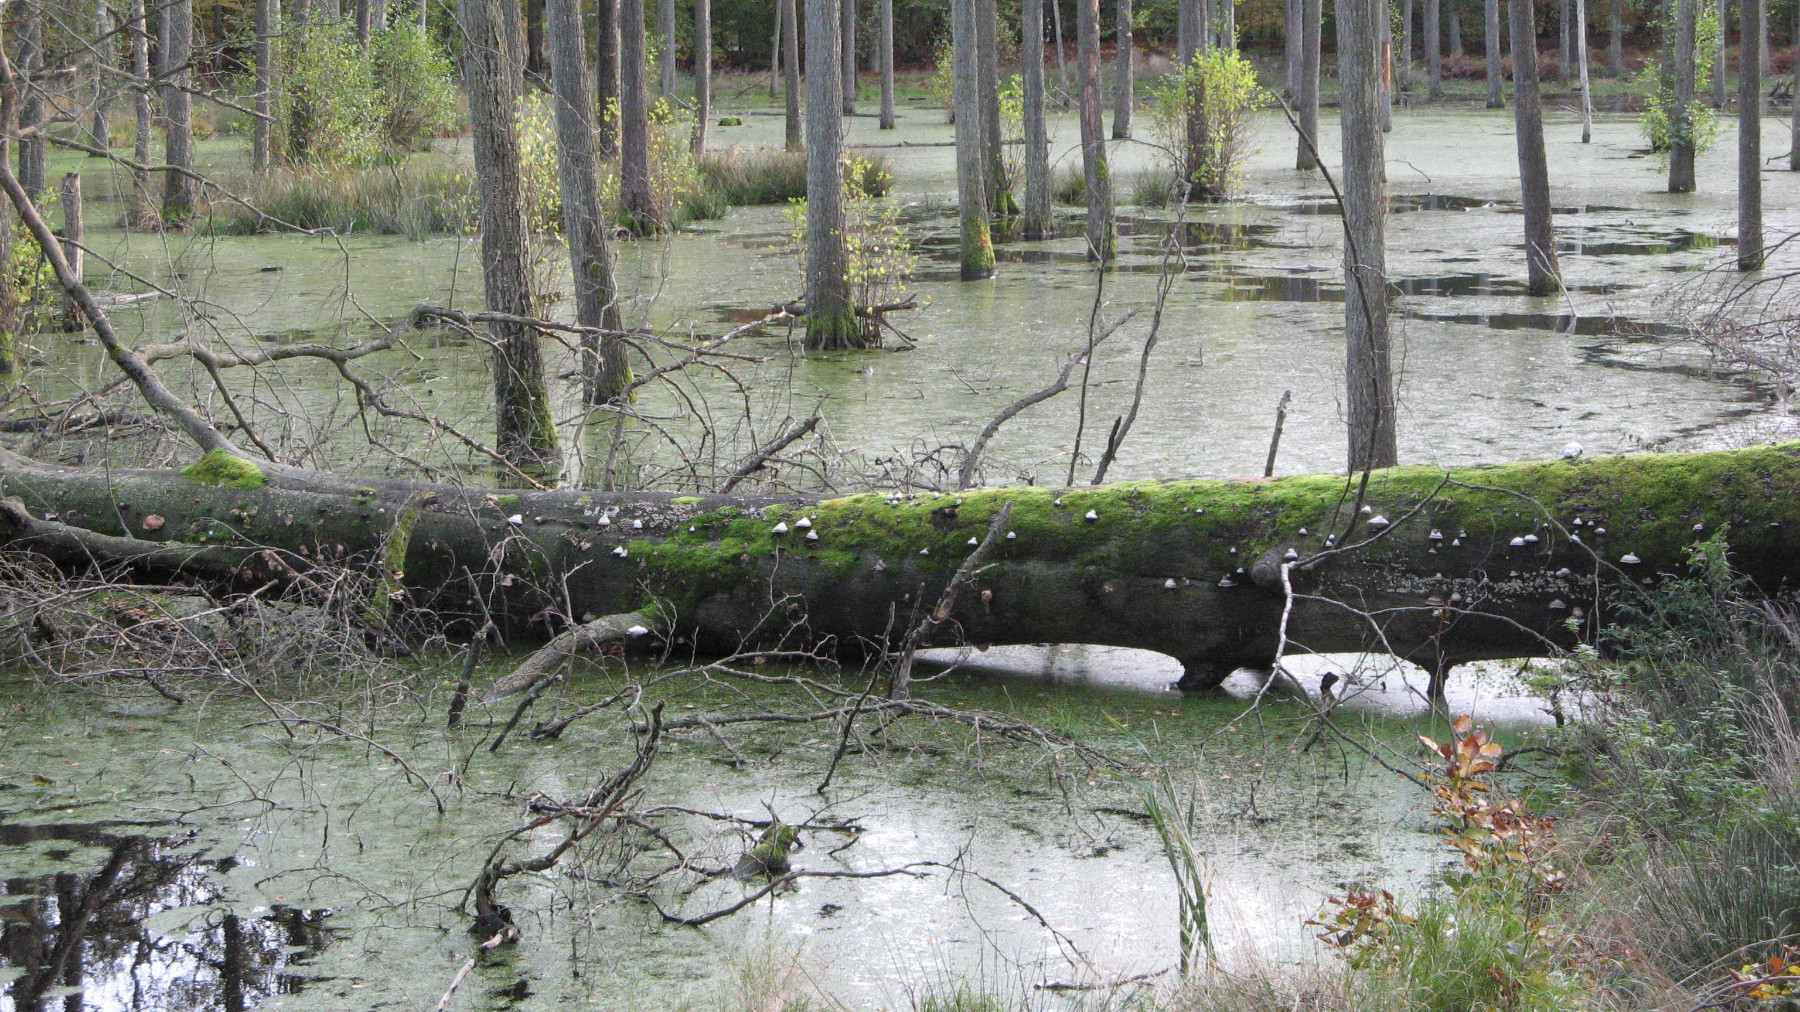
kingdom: Fungi
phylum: Basidiomycota
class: Agaricomycetes
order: Polyporales
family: Polyporaceae
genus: Fomes
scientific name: Fomes fomentarius
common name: tøndersvamp
